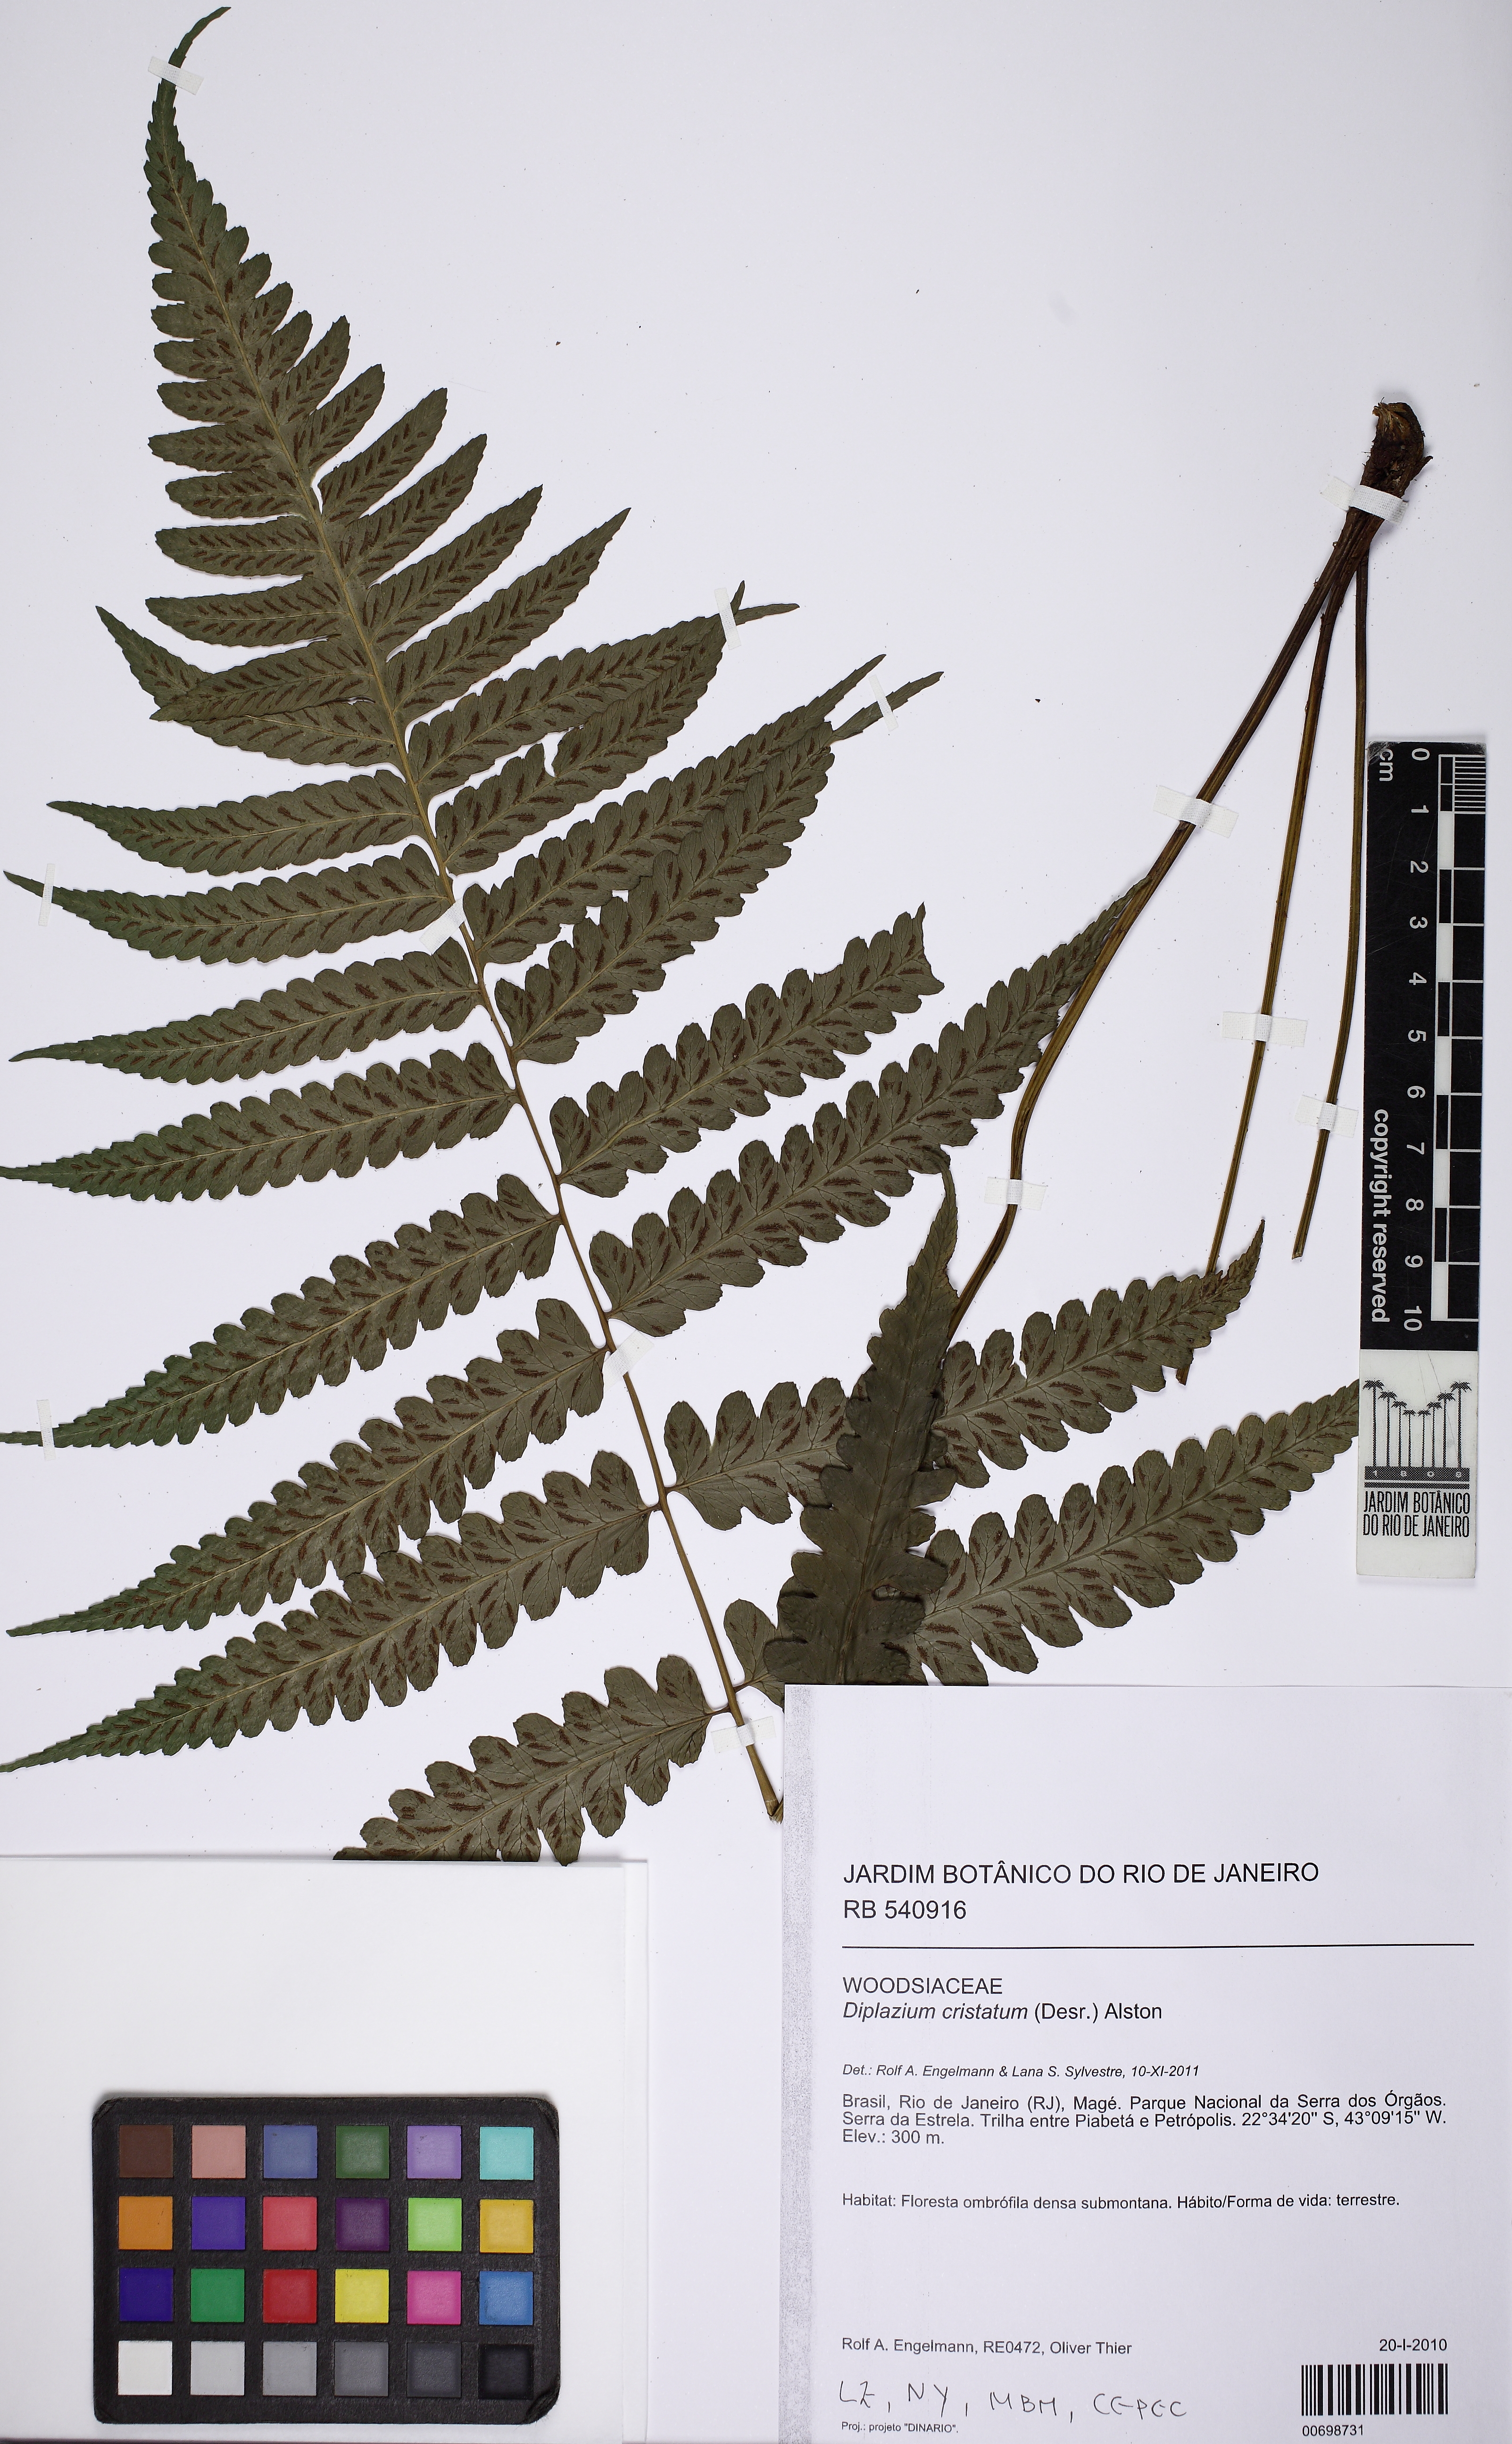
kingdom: Plantae
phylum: Tracheophyta
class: Polypodiopsida
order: Polypodiales
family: Athyriaceae
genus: Diplazium
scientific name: Diplazium cristatum
